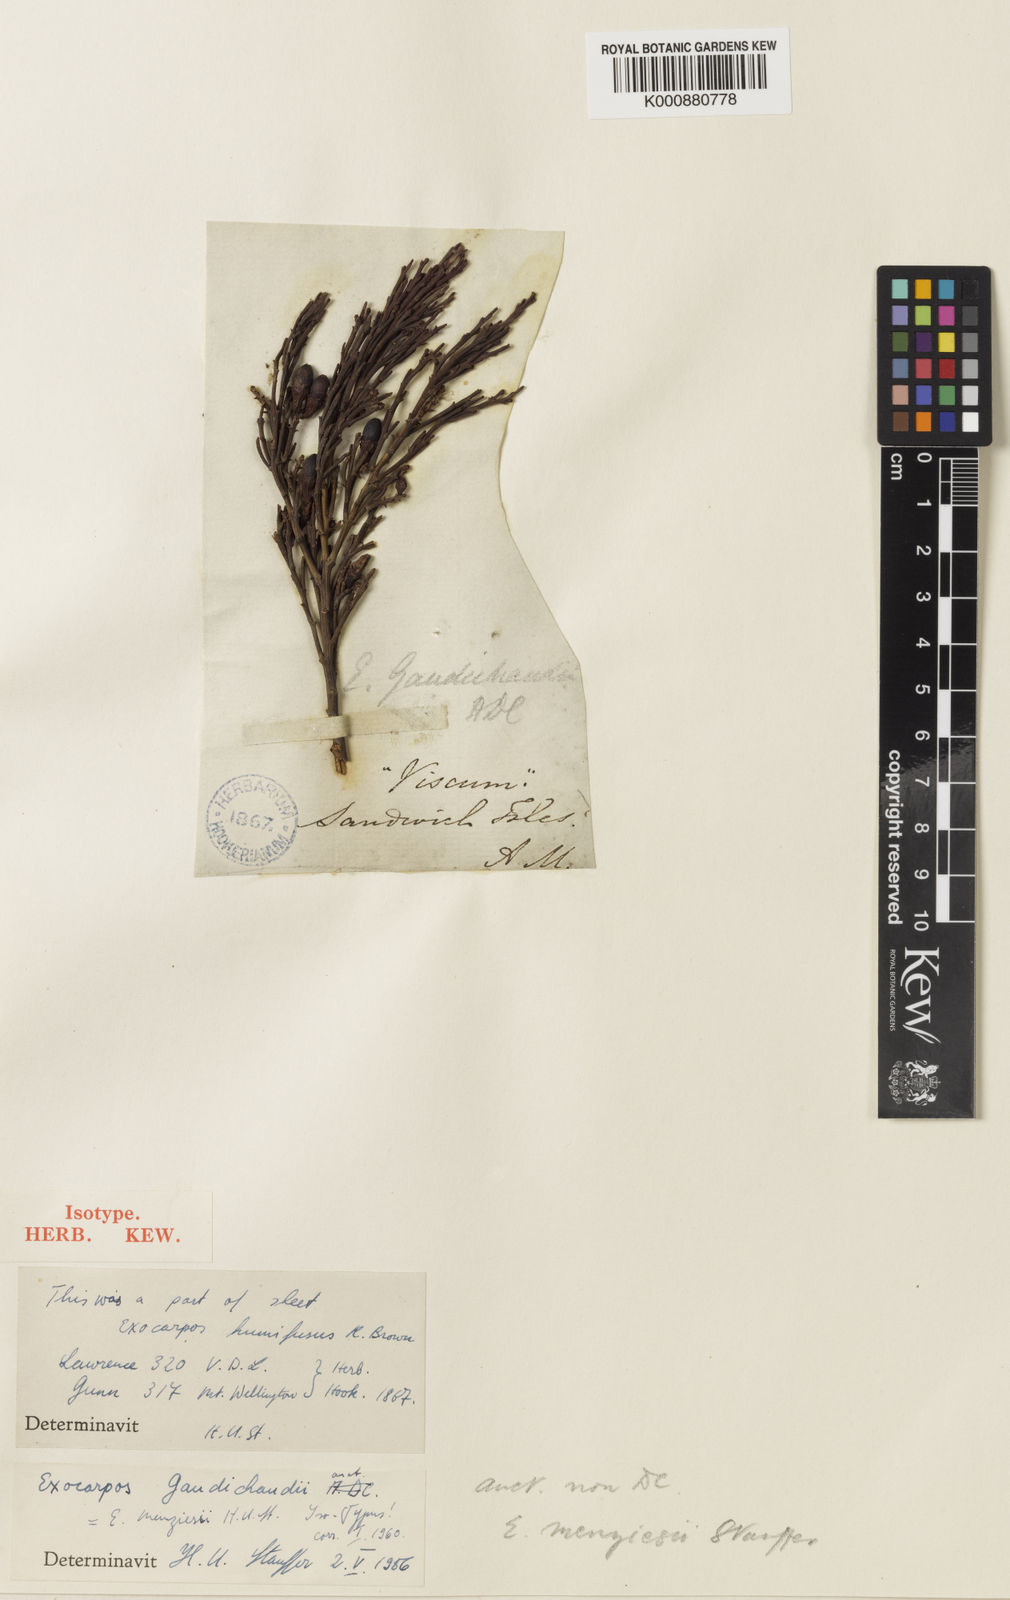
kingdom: Plantae
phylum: Tracheophyta
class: Magnoliopsida
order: Santalales
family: Santalaceae
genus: Exocarpos
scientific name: Exocarpos menziesii
